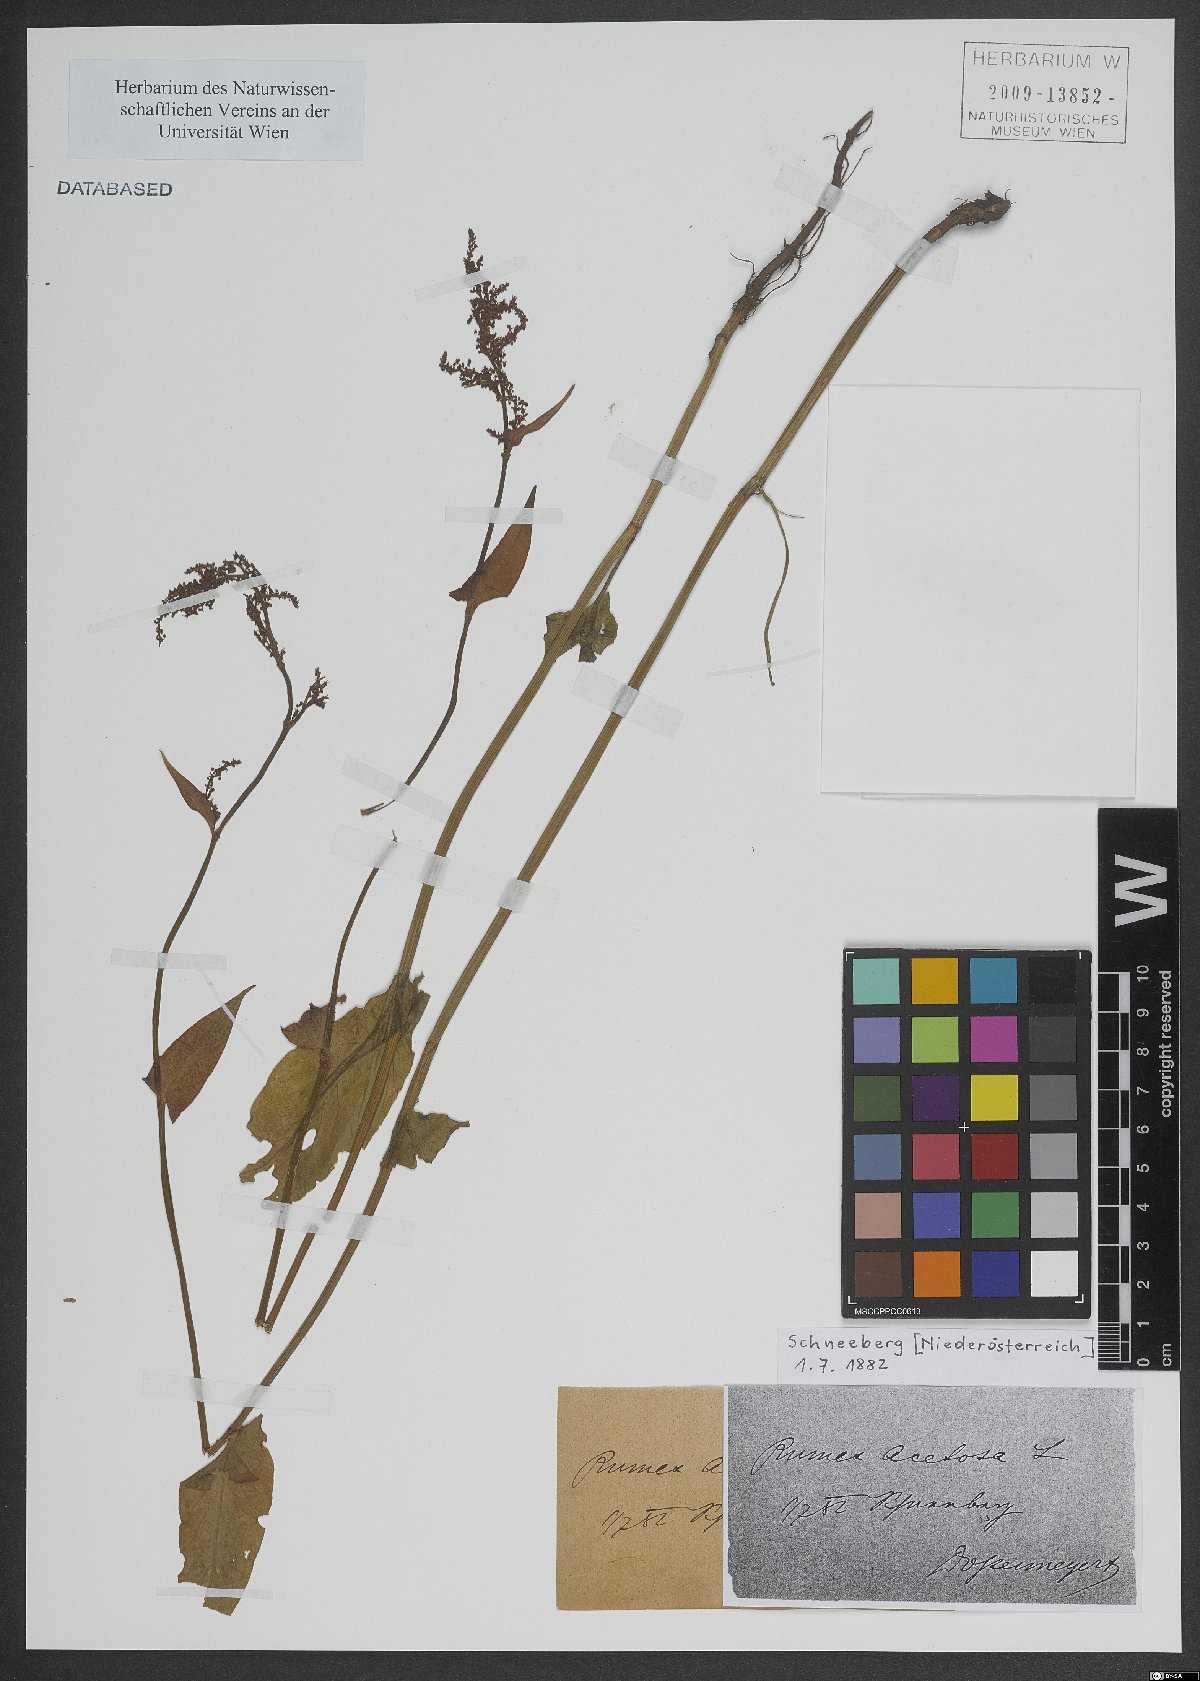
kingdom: Plantae
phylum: Tracheophyta
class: Magnoliopsida
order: Caryophyllales
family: Polygonaceae
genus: Rumex
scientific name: Rumex acetosa
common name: Garden sorrel
